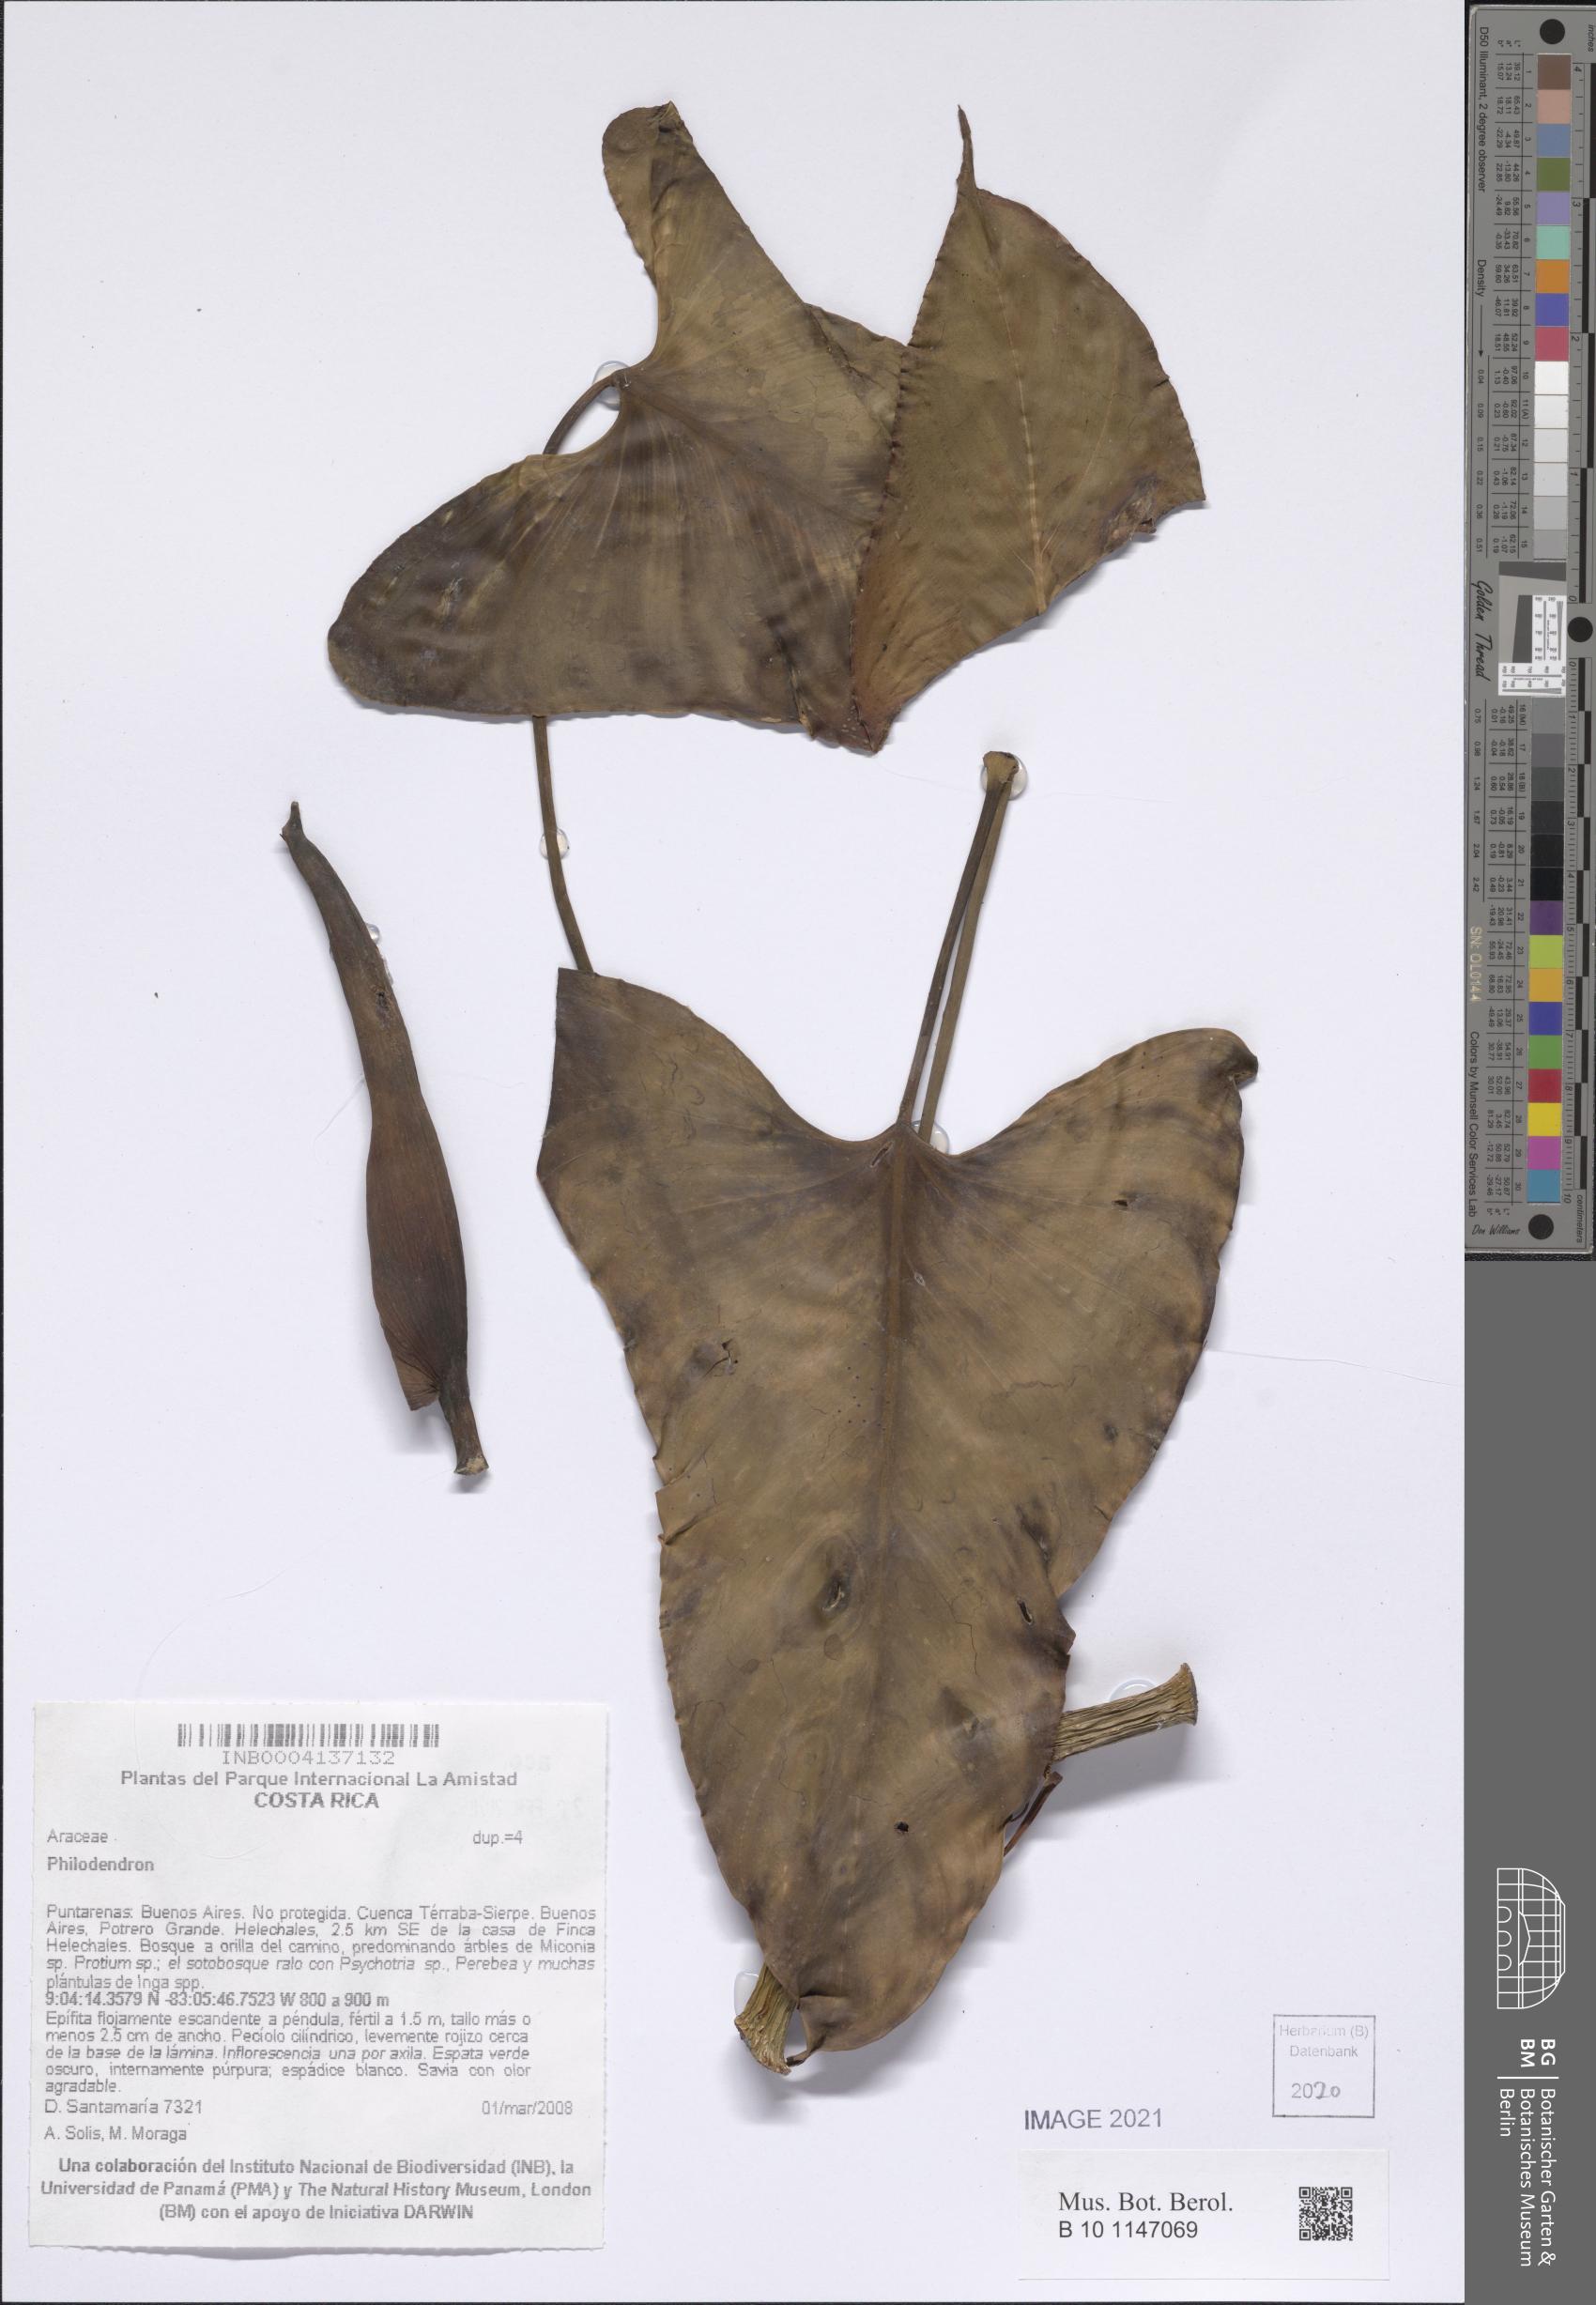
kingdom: Plantae
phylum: Tracheophyta
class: Liliopsida
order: Alismatales
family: Araceae
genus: Philodendron
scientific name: Philodendron
